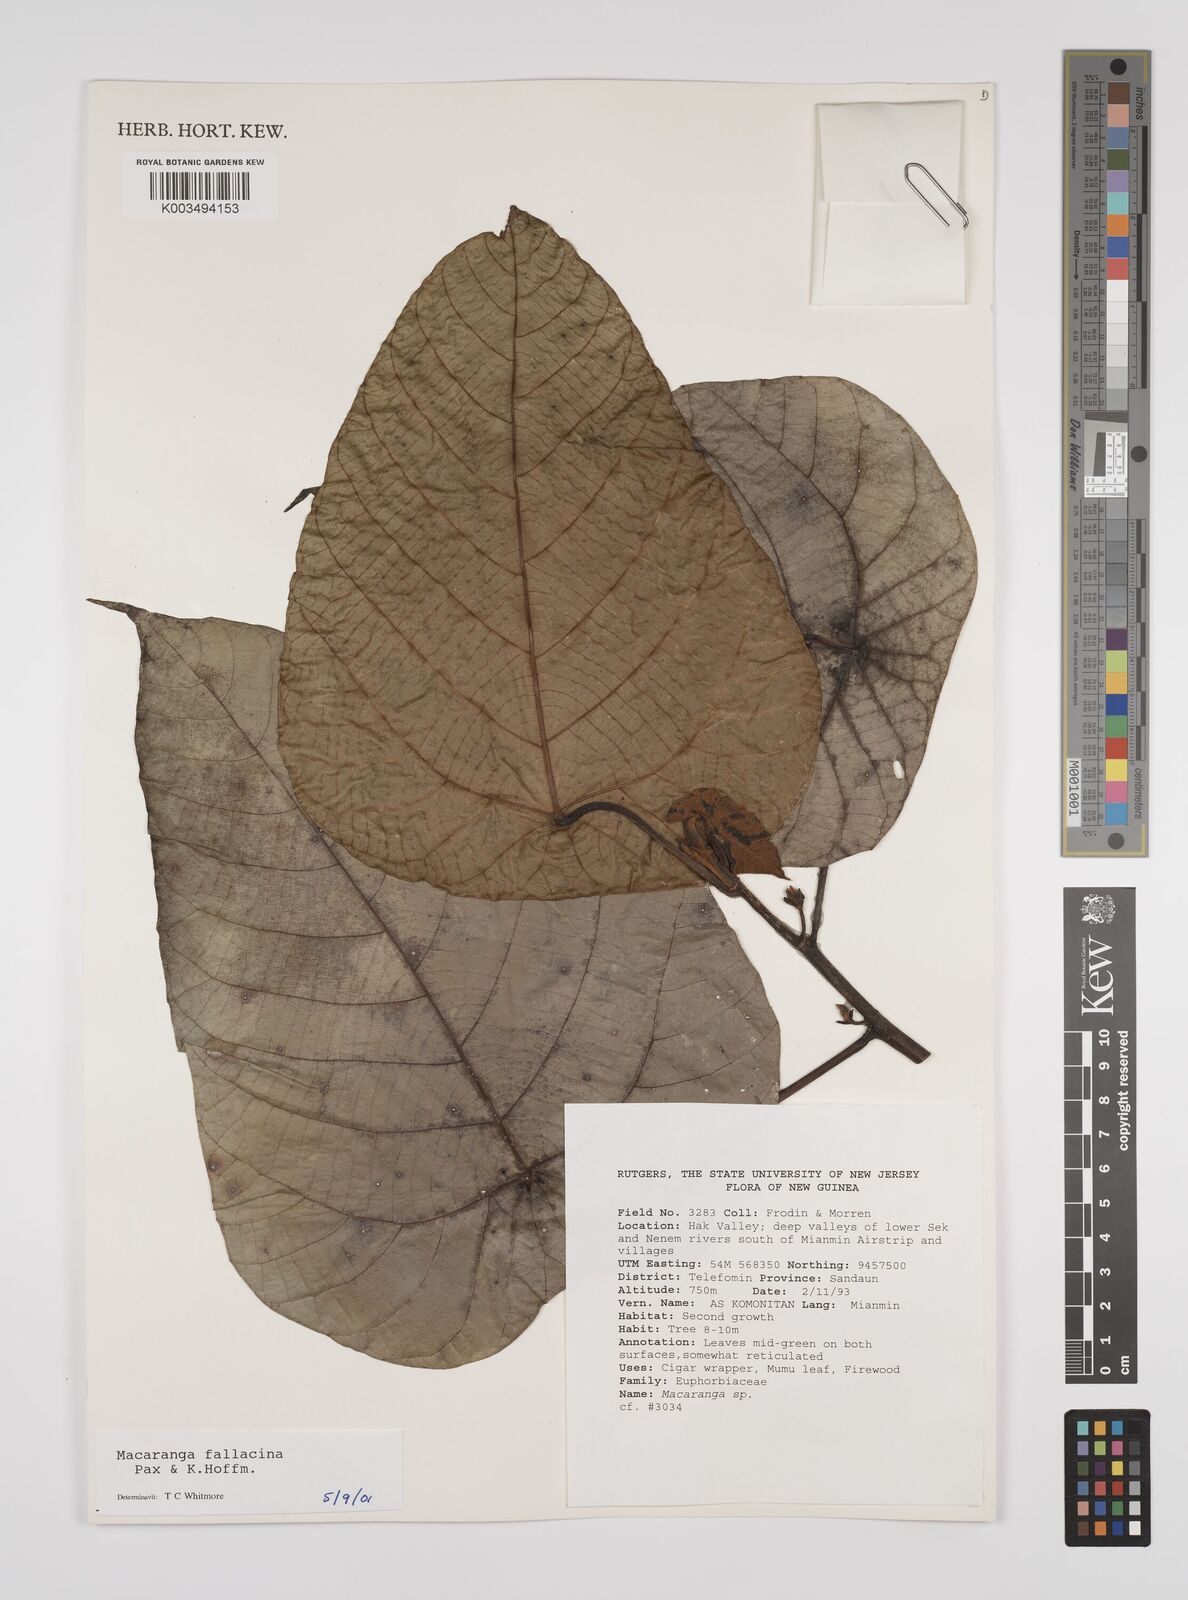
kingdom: Plantae
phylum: Tracheophyta
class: Magnoliopsida
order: Malpighiales
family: Euphorbiaceae
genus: Macaranga
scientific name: Macaranga fallacina
